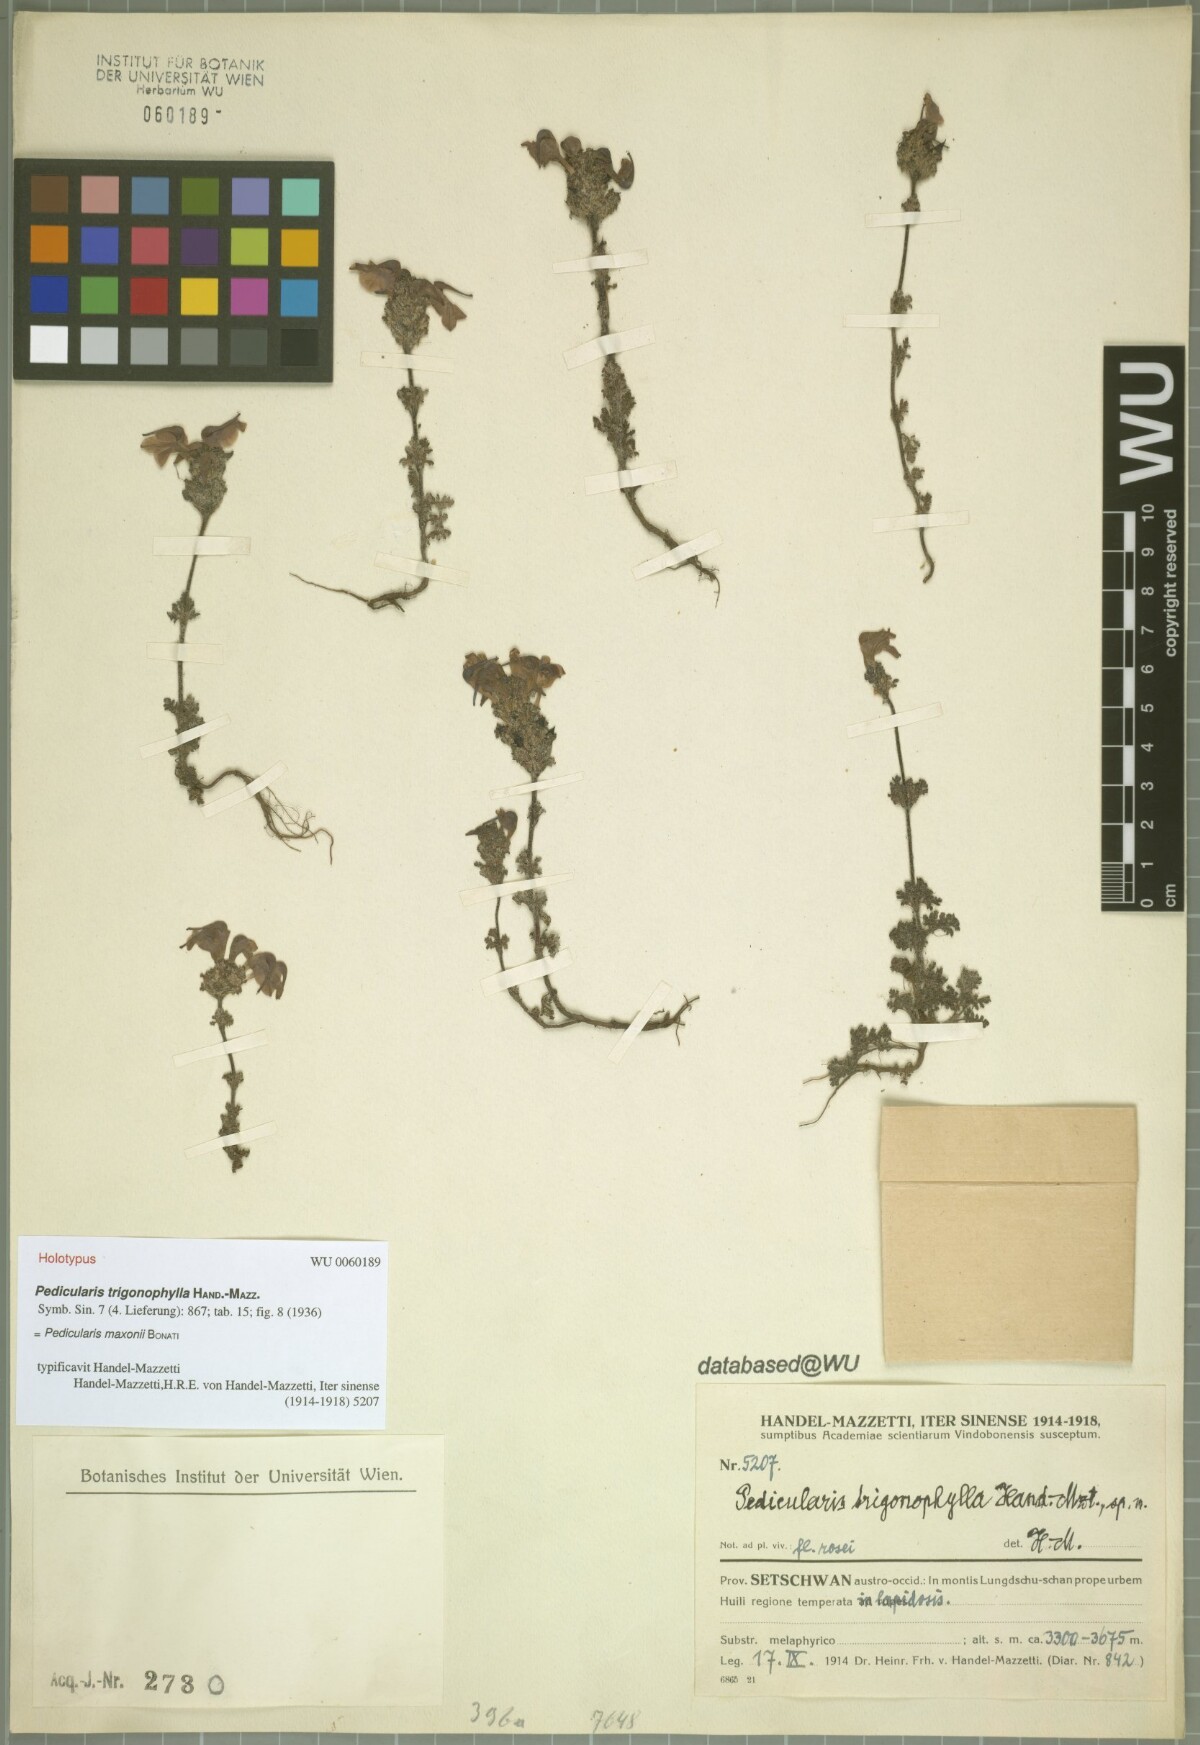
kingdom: Plantae
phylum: Tracheophyta
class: Magnoliopsida
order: Lamiales
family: Orobanchaceae
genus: Pedicularis
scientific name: Pedicularis maxonii
